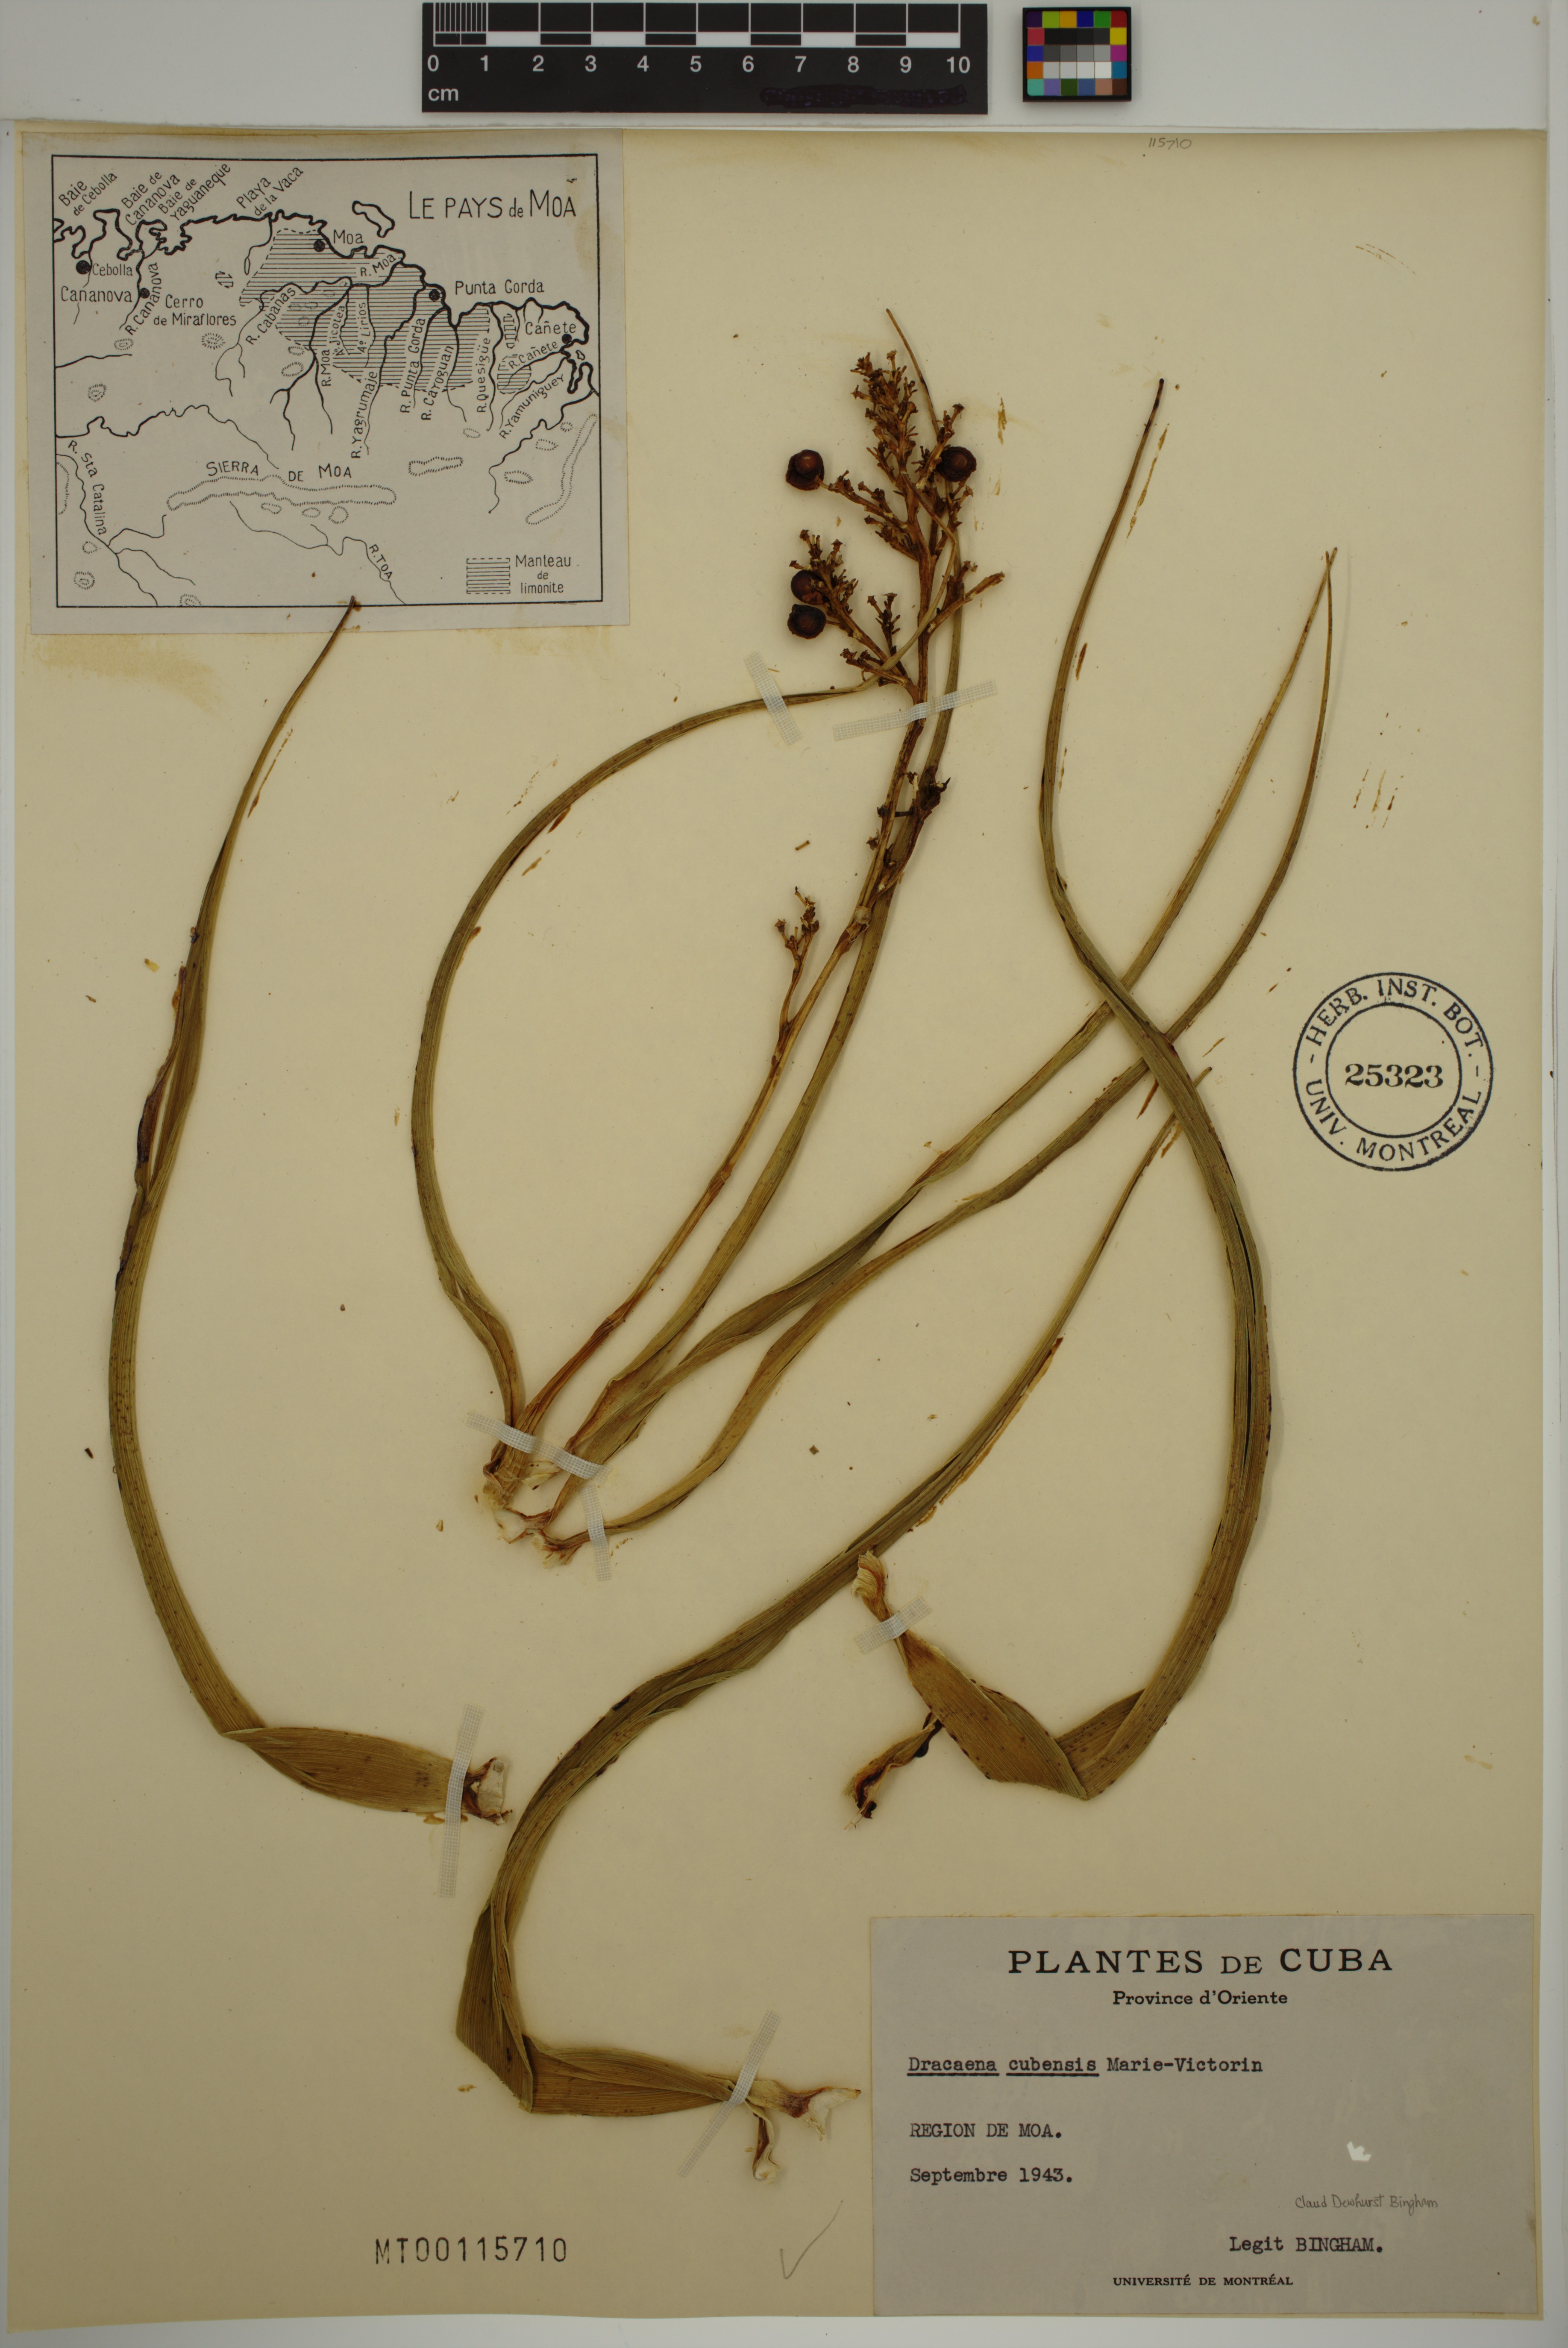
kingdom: Plantae
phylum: Tracheophyta
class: Liliopsida
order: Asparagales
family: Asparagaceae
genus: Dracaena
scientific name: Dracaena cubensis
